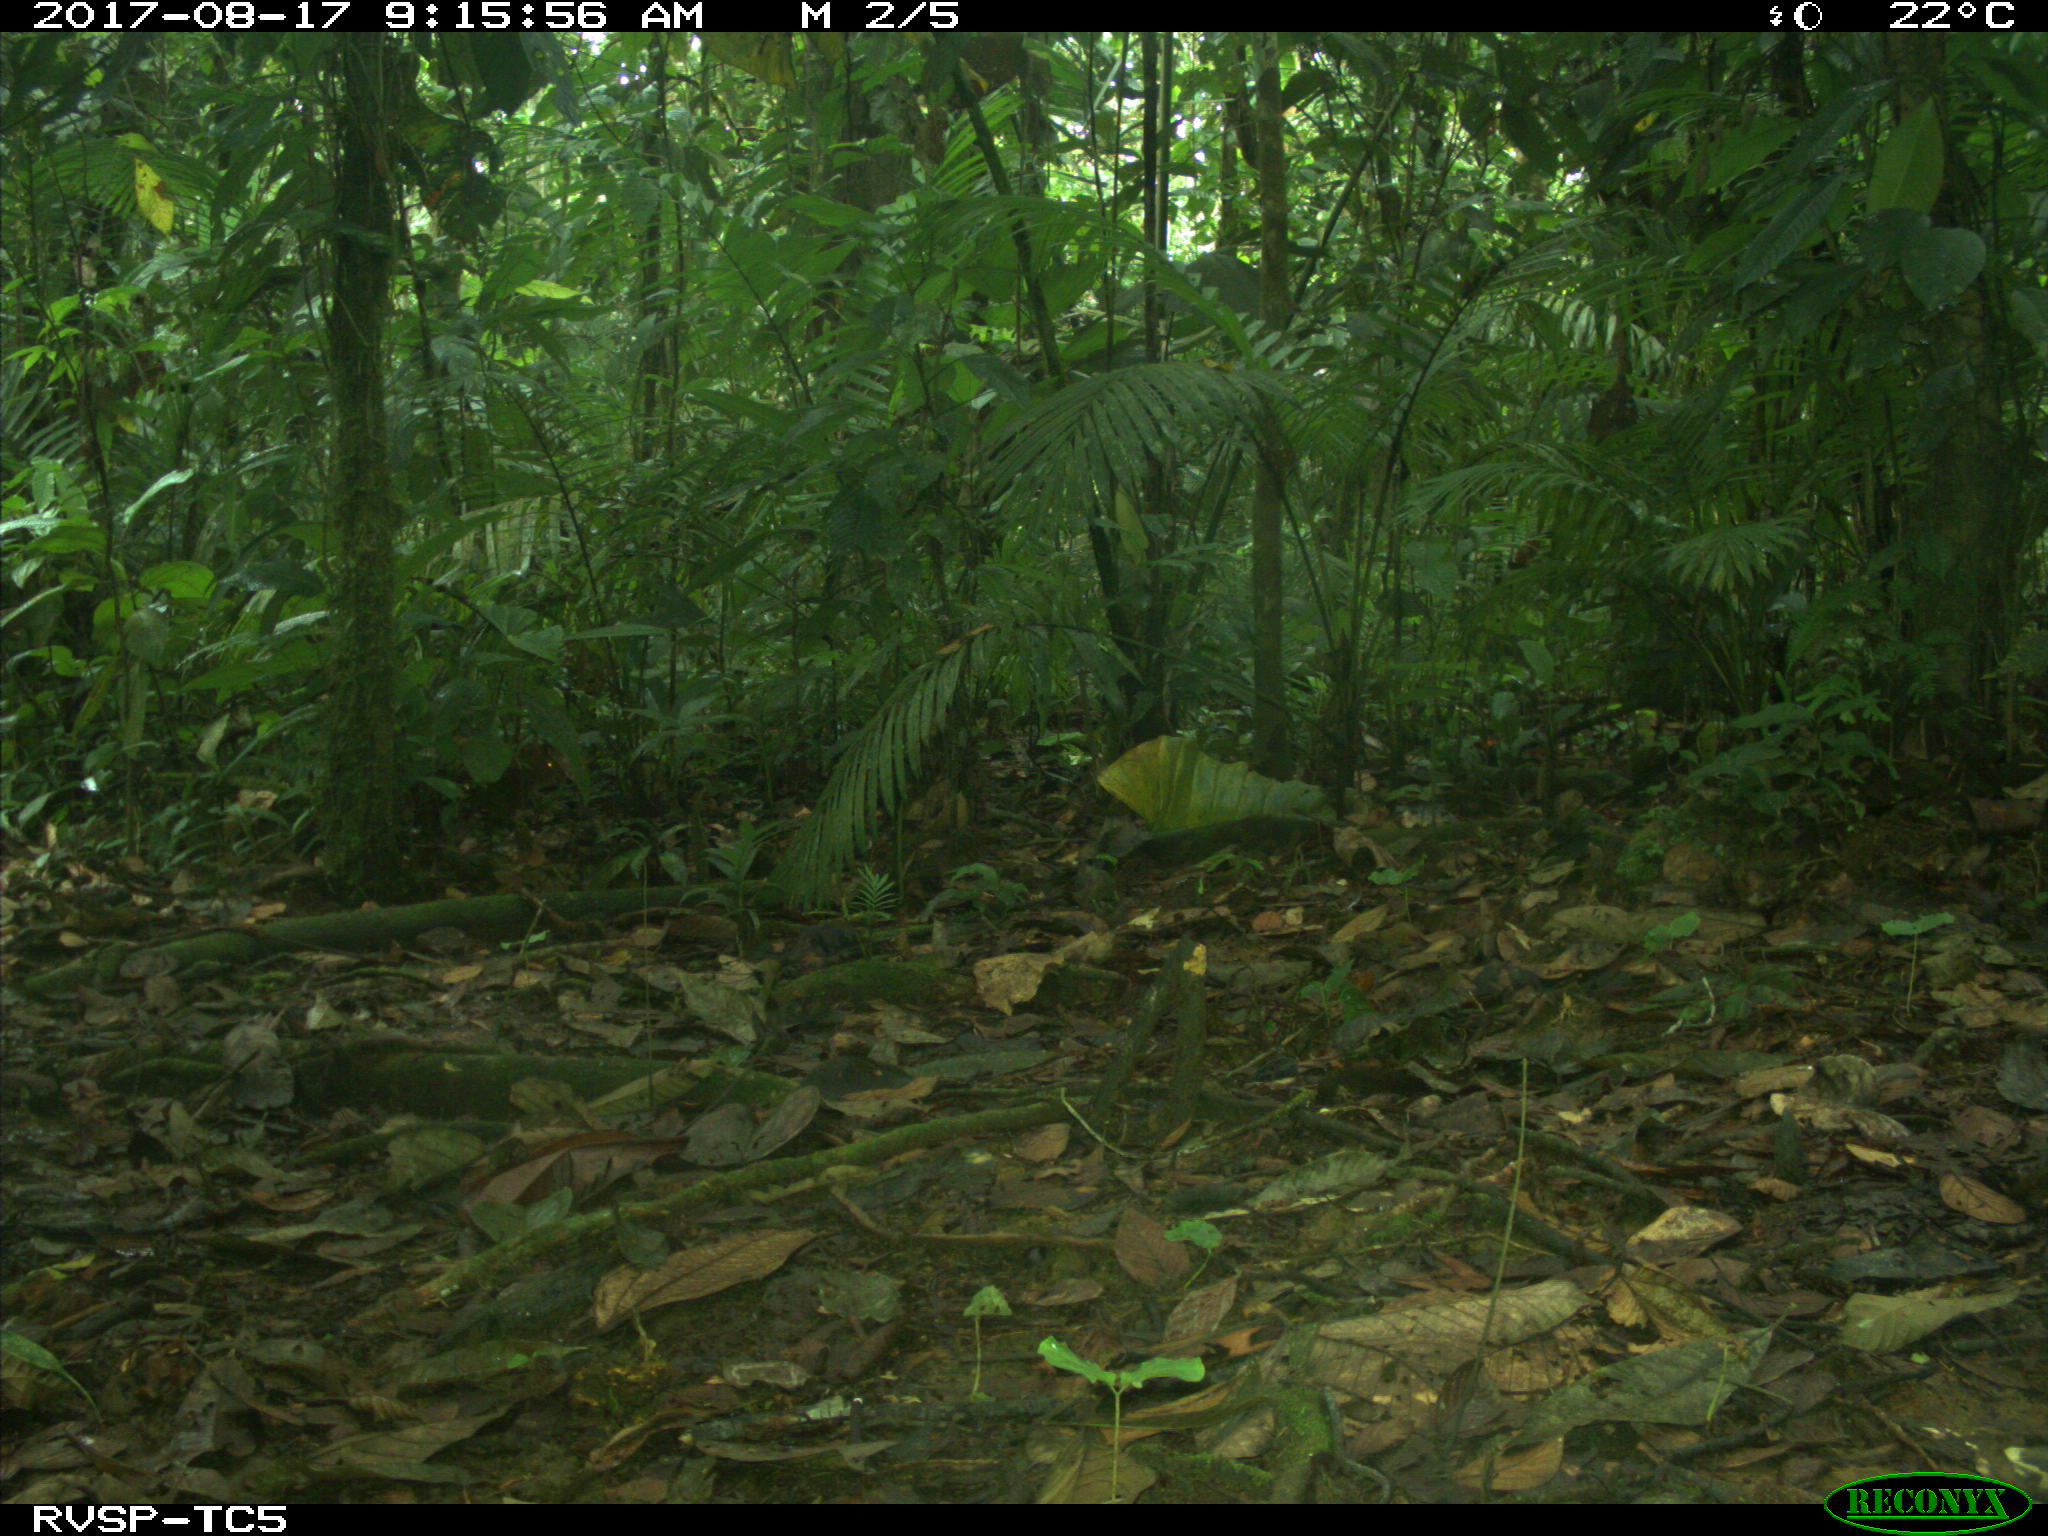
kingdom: Animalia
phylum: Chordata
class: Mammalia
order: Rodentia
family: Dasyproctidae
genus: Dasyprocta
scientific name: Dasyprocta punctata
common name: Central american agouti
